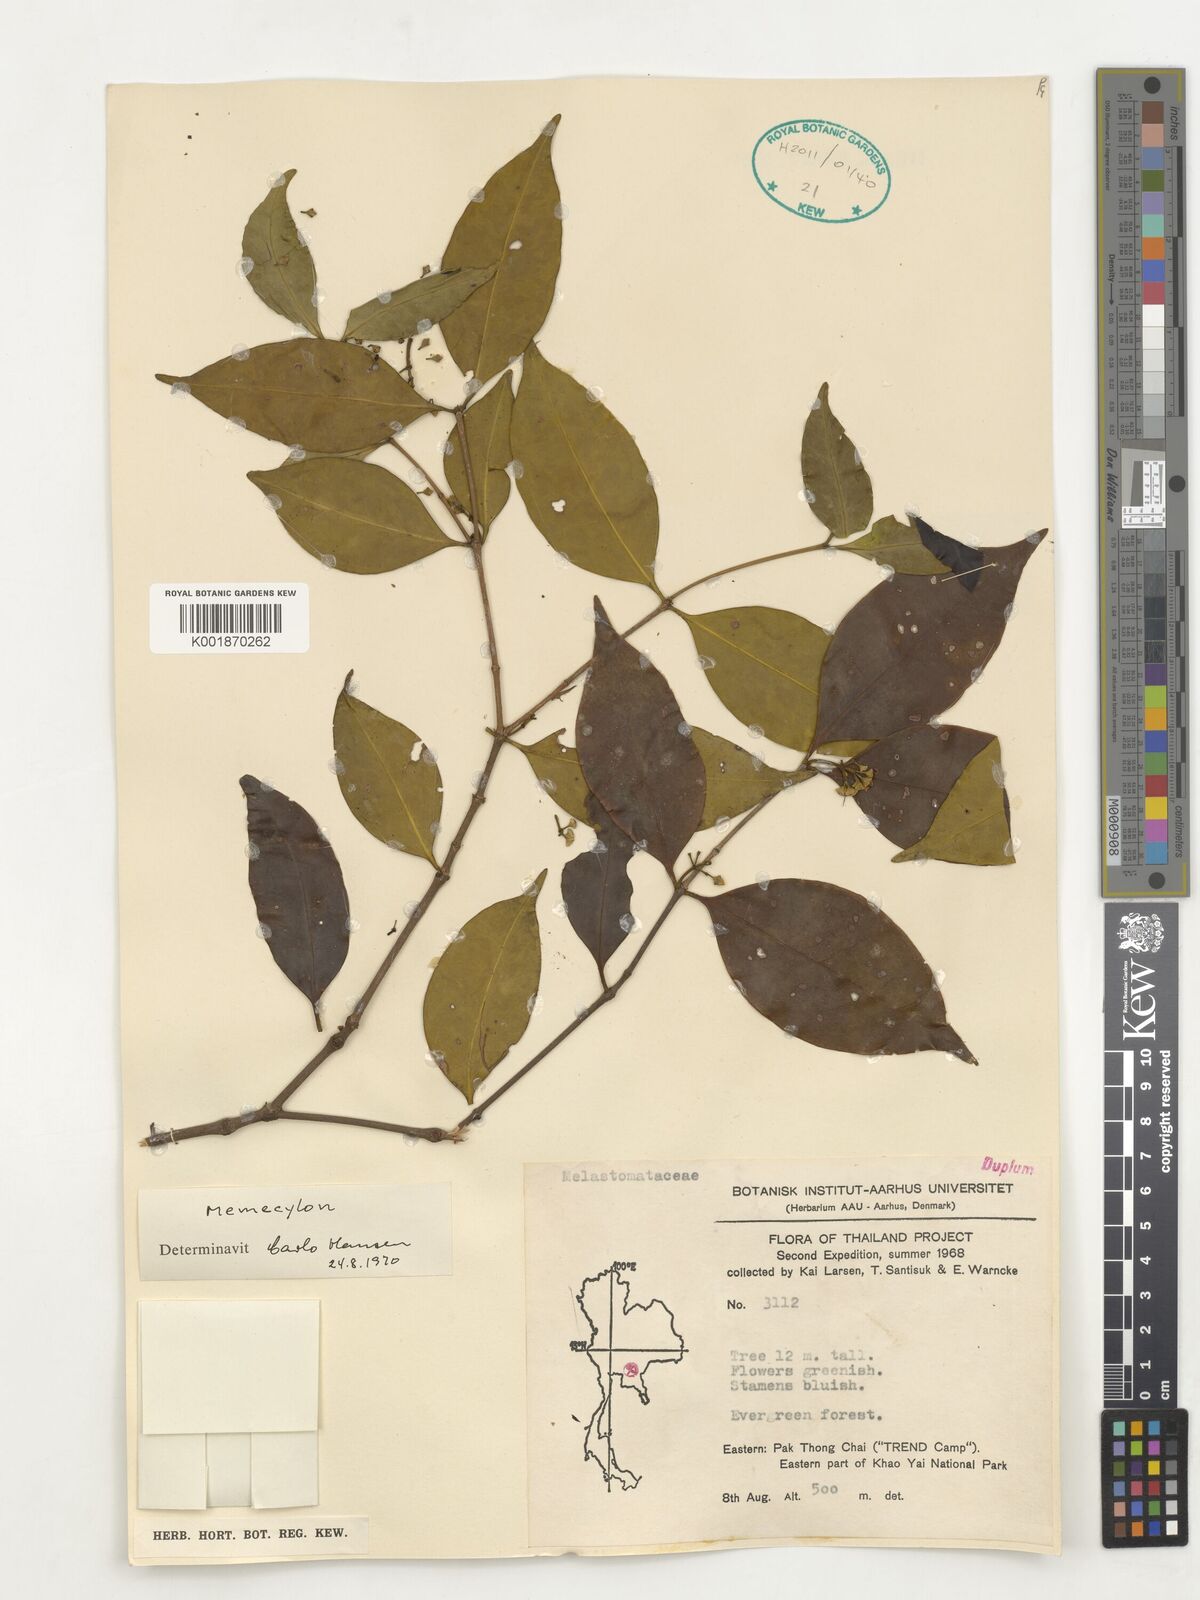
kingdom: Plantae
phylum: Tracheophyta
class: Magnoliopsida
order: Myrtales
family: Melastomataceae
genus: Memecylon
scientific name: Memecylon
